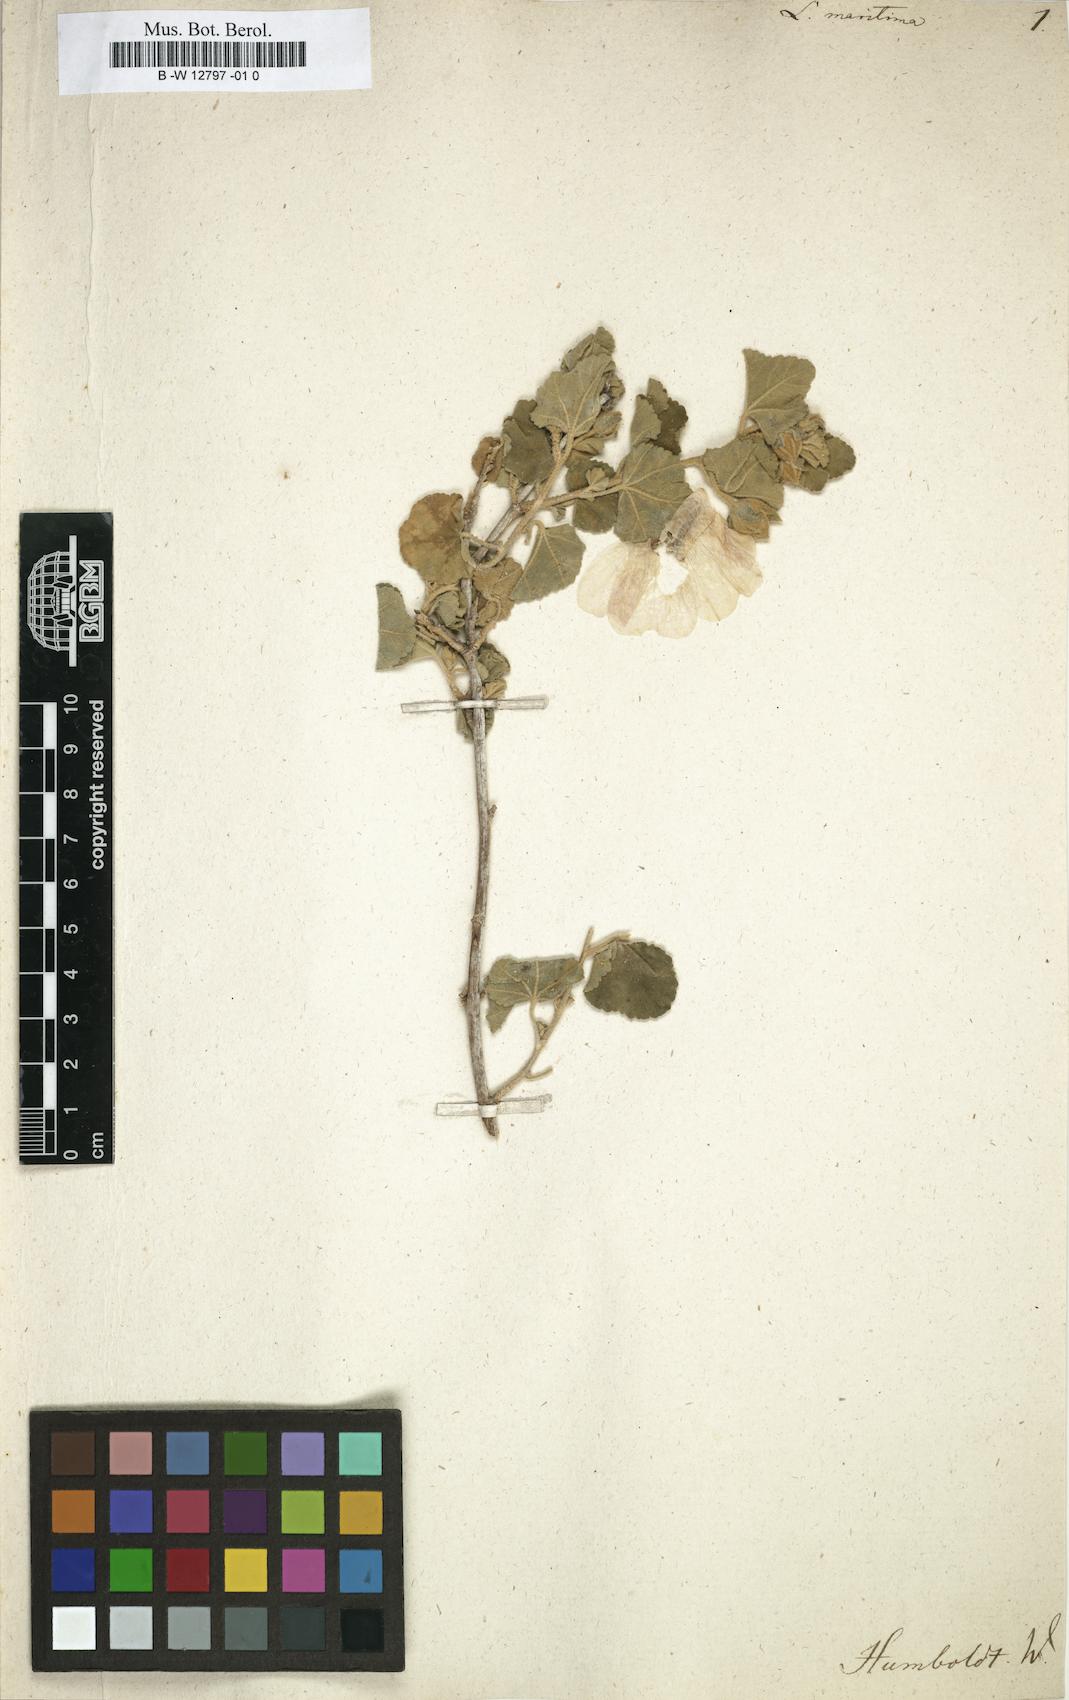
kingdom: Plantae
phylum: Tracheophyta
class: Magnoliopsida
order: Malvales
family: Malvaceae
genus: Malva
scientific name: Malva subovata
